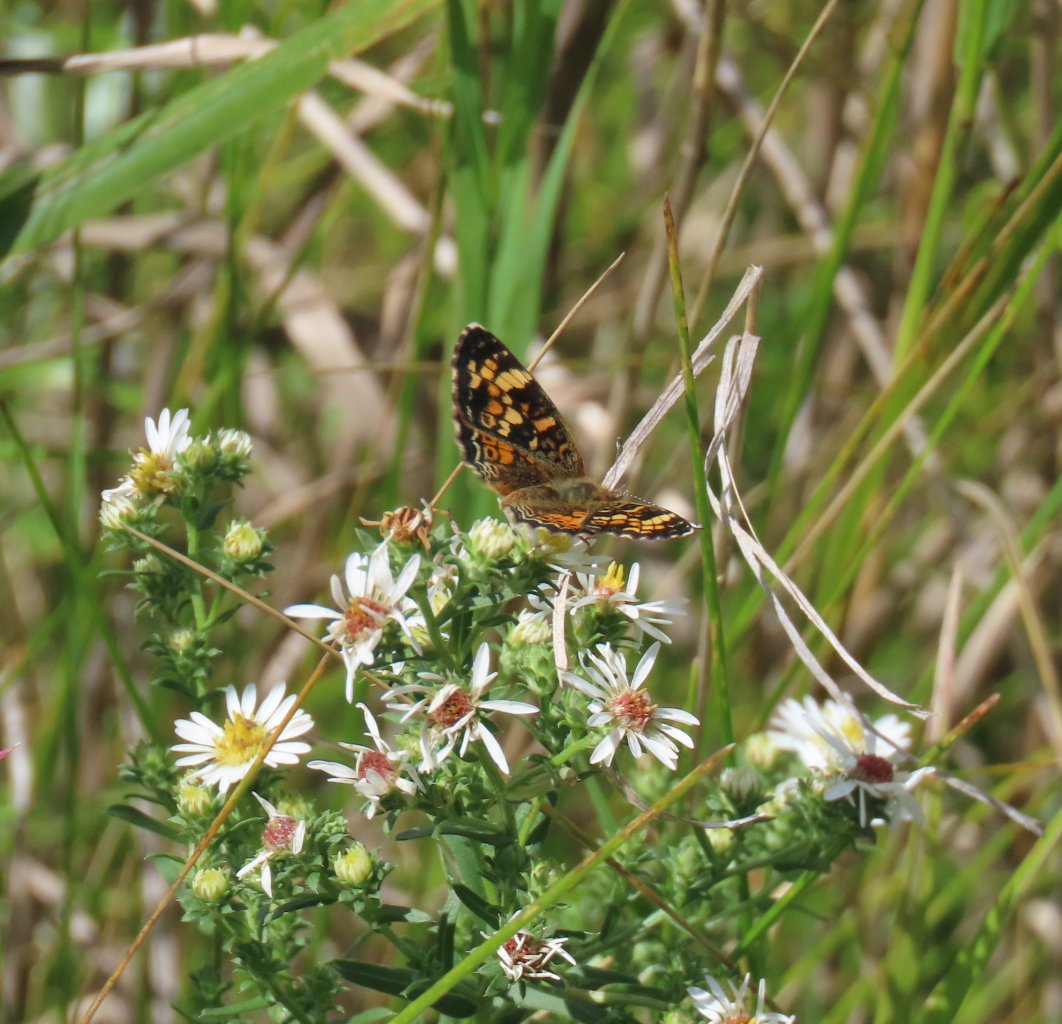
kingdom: Animalia
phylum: Arthropoda
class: Insecta
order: Lepidoptera
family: Nymphalidae
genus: Phyciodes
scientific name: Phyciodes batesii
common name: Tawny Crescent
